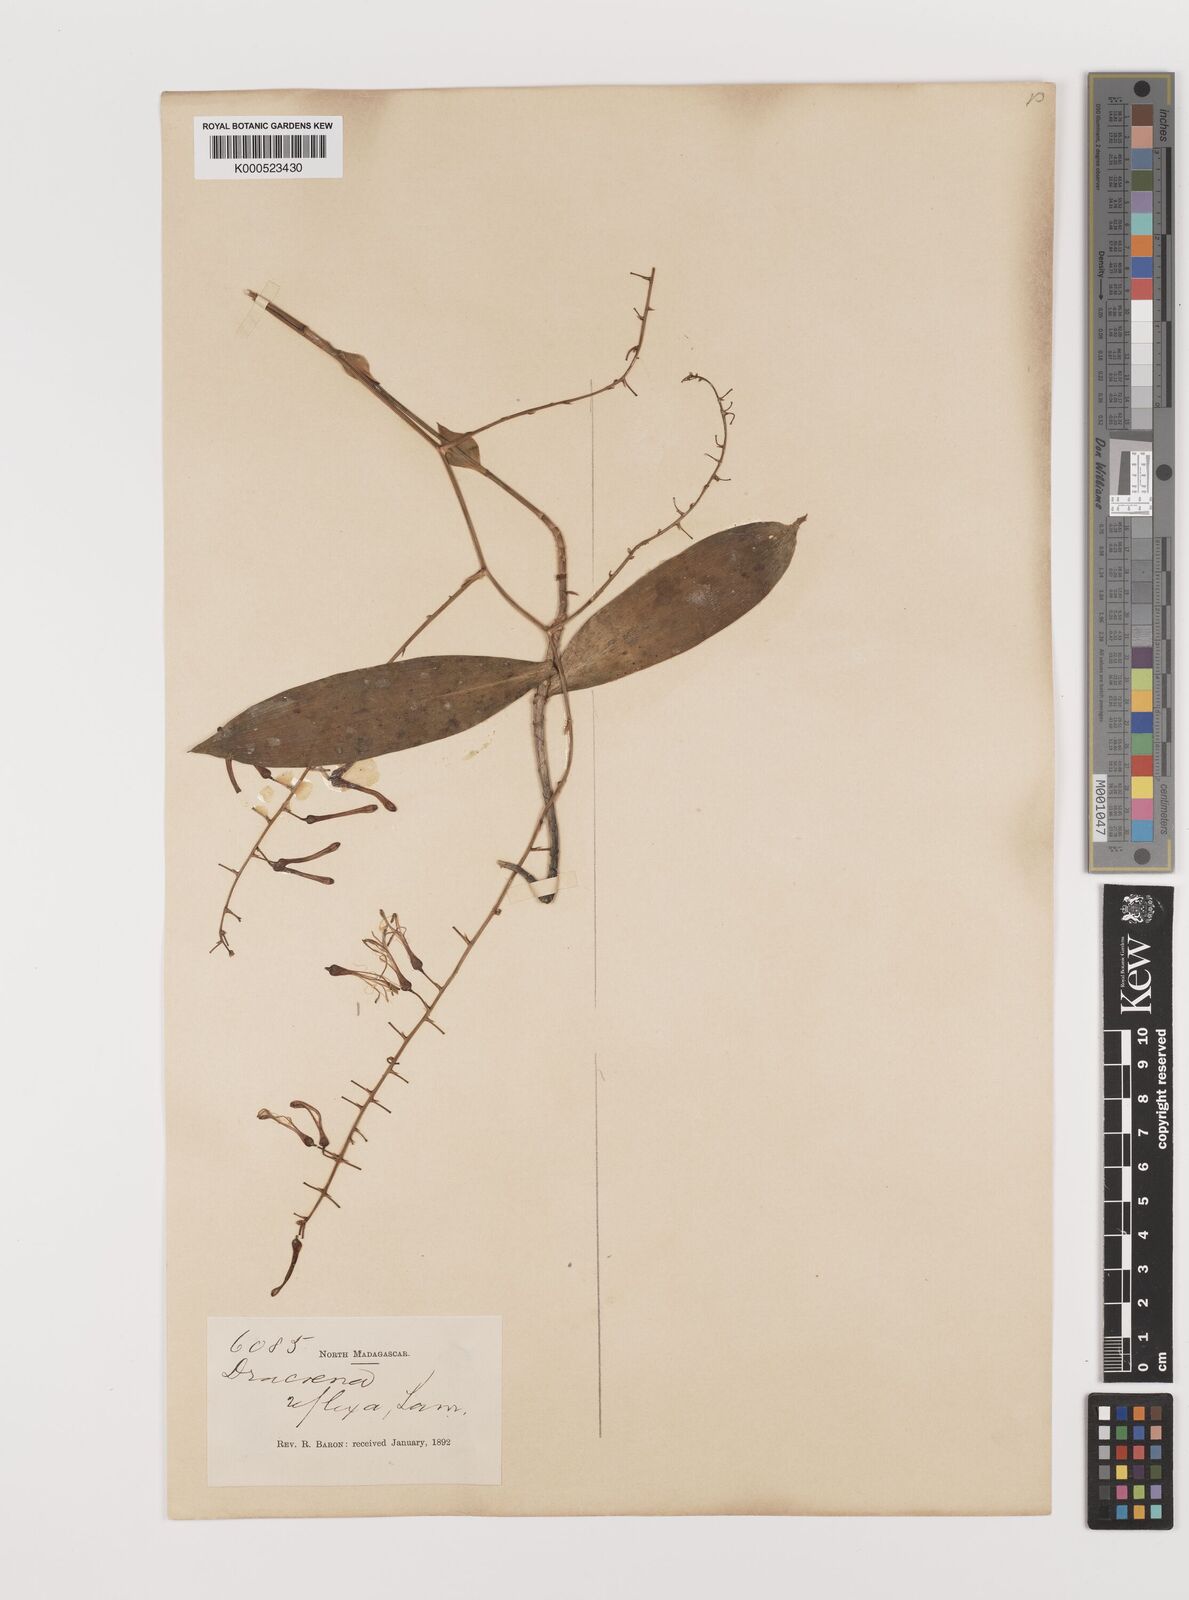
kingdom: Plantae
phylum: Tracheophyta
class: Liliopsida
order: Asparagales
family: Asparagaceae
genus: Dracaena
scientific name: Dracaena reflexa
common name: Song-of-india
